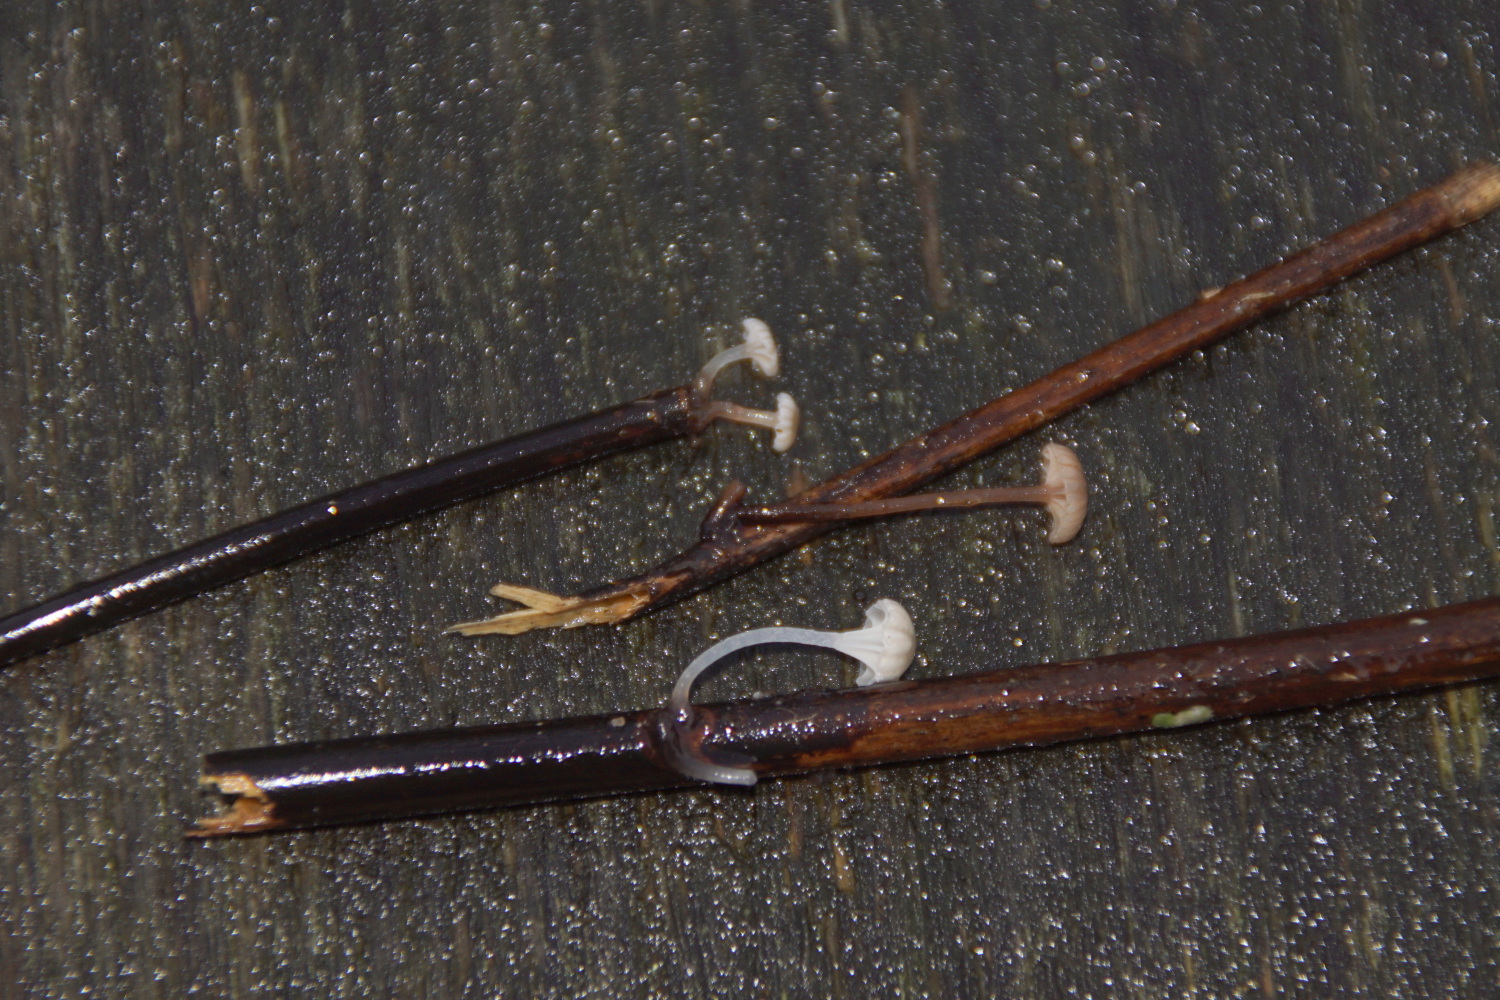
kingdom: Fungi
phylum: Basidiomycota
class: Agaricomycetes
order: Agaricales
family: Mycenaceae
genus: Mycena
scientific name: Mycena belliae
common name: tagrørs-huesvamp
